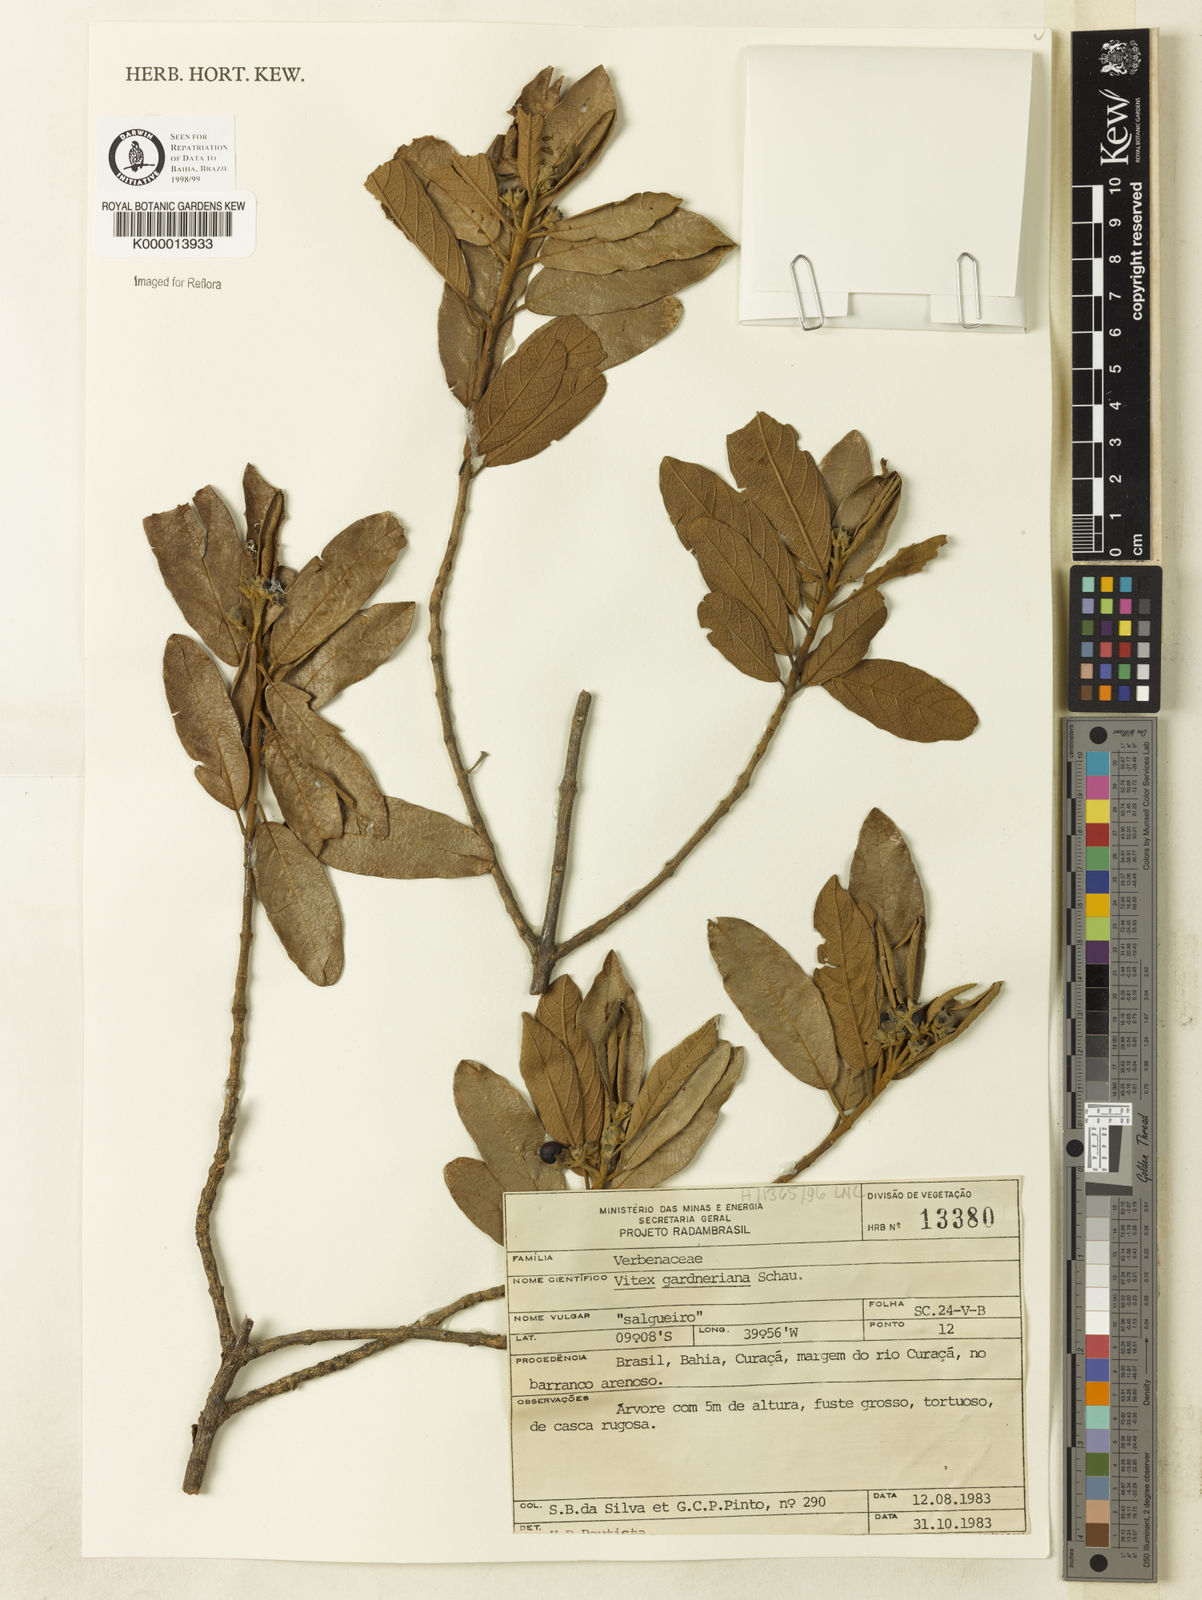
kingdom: Plantae
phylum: Tracheophyta
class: Magnoliopsida
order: Lamiales
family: Lamiaceae
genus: Vitex
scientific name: Vitex gardneriana
